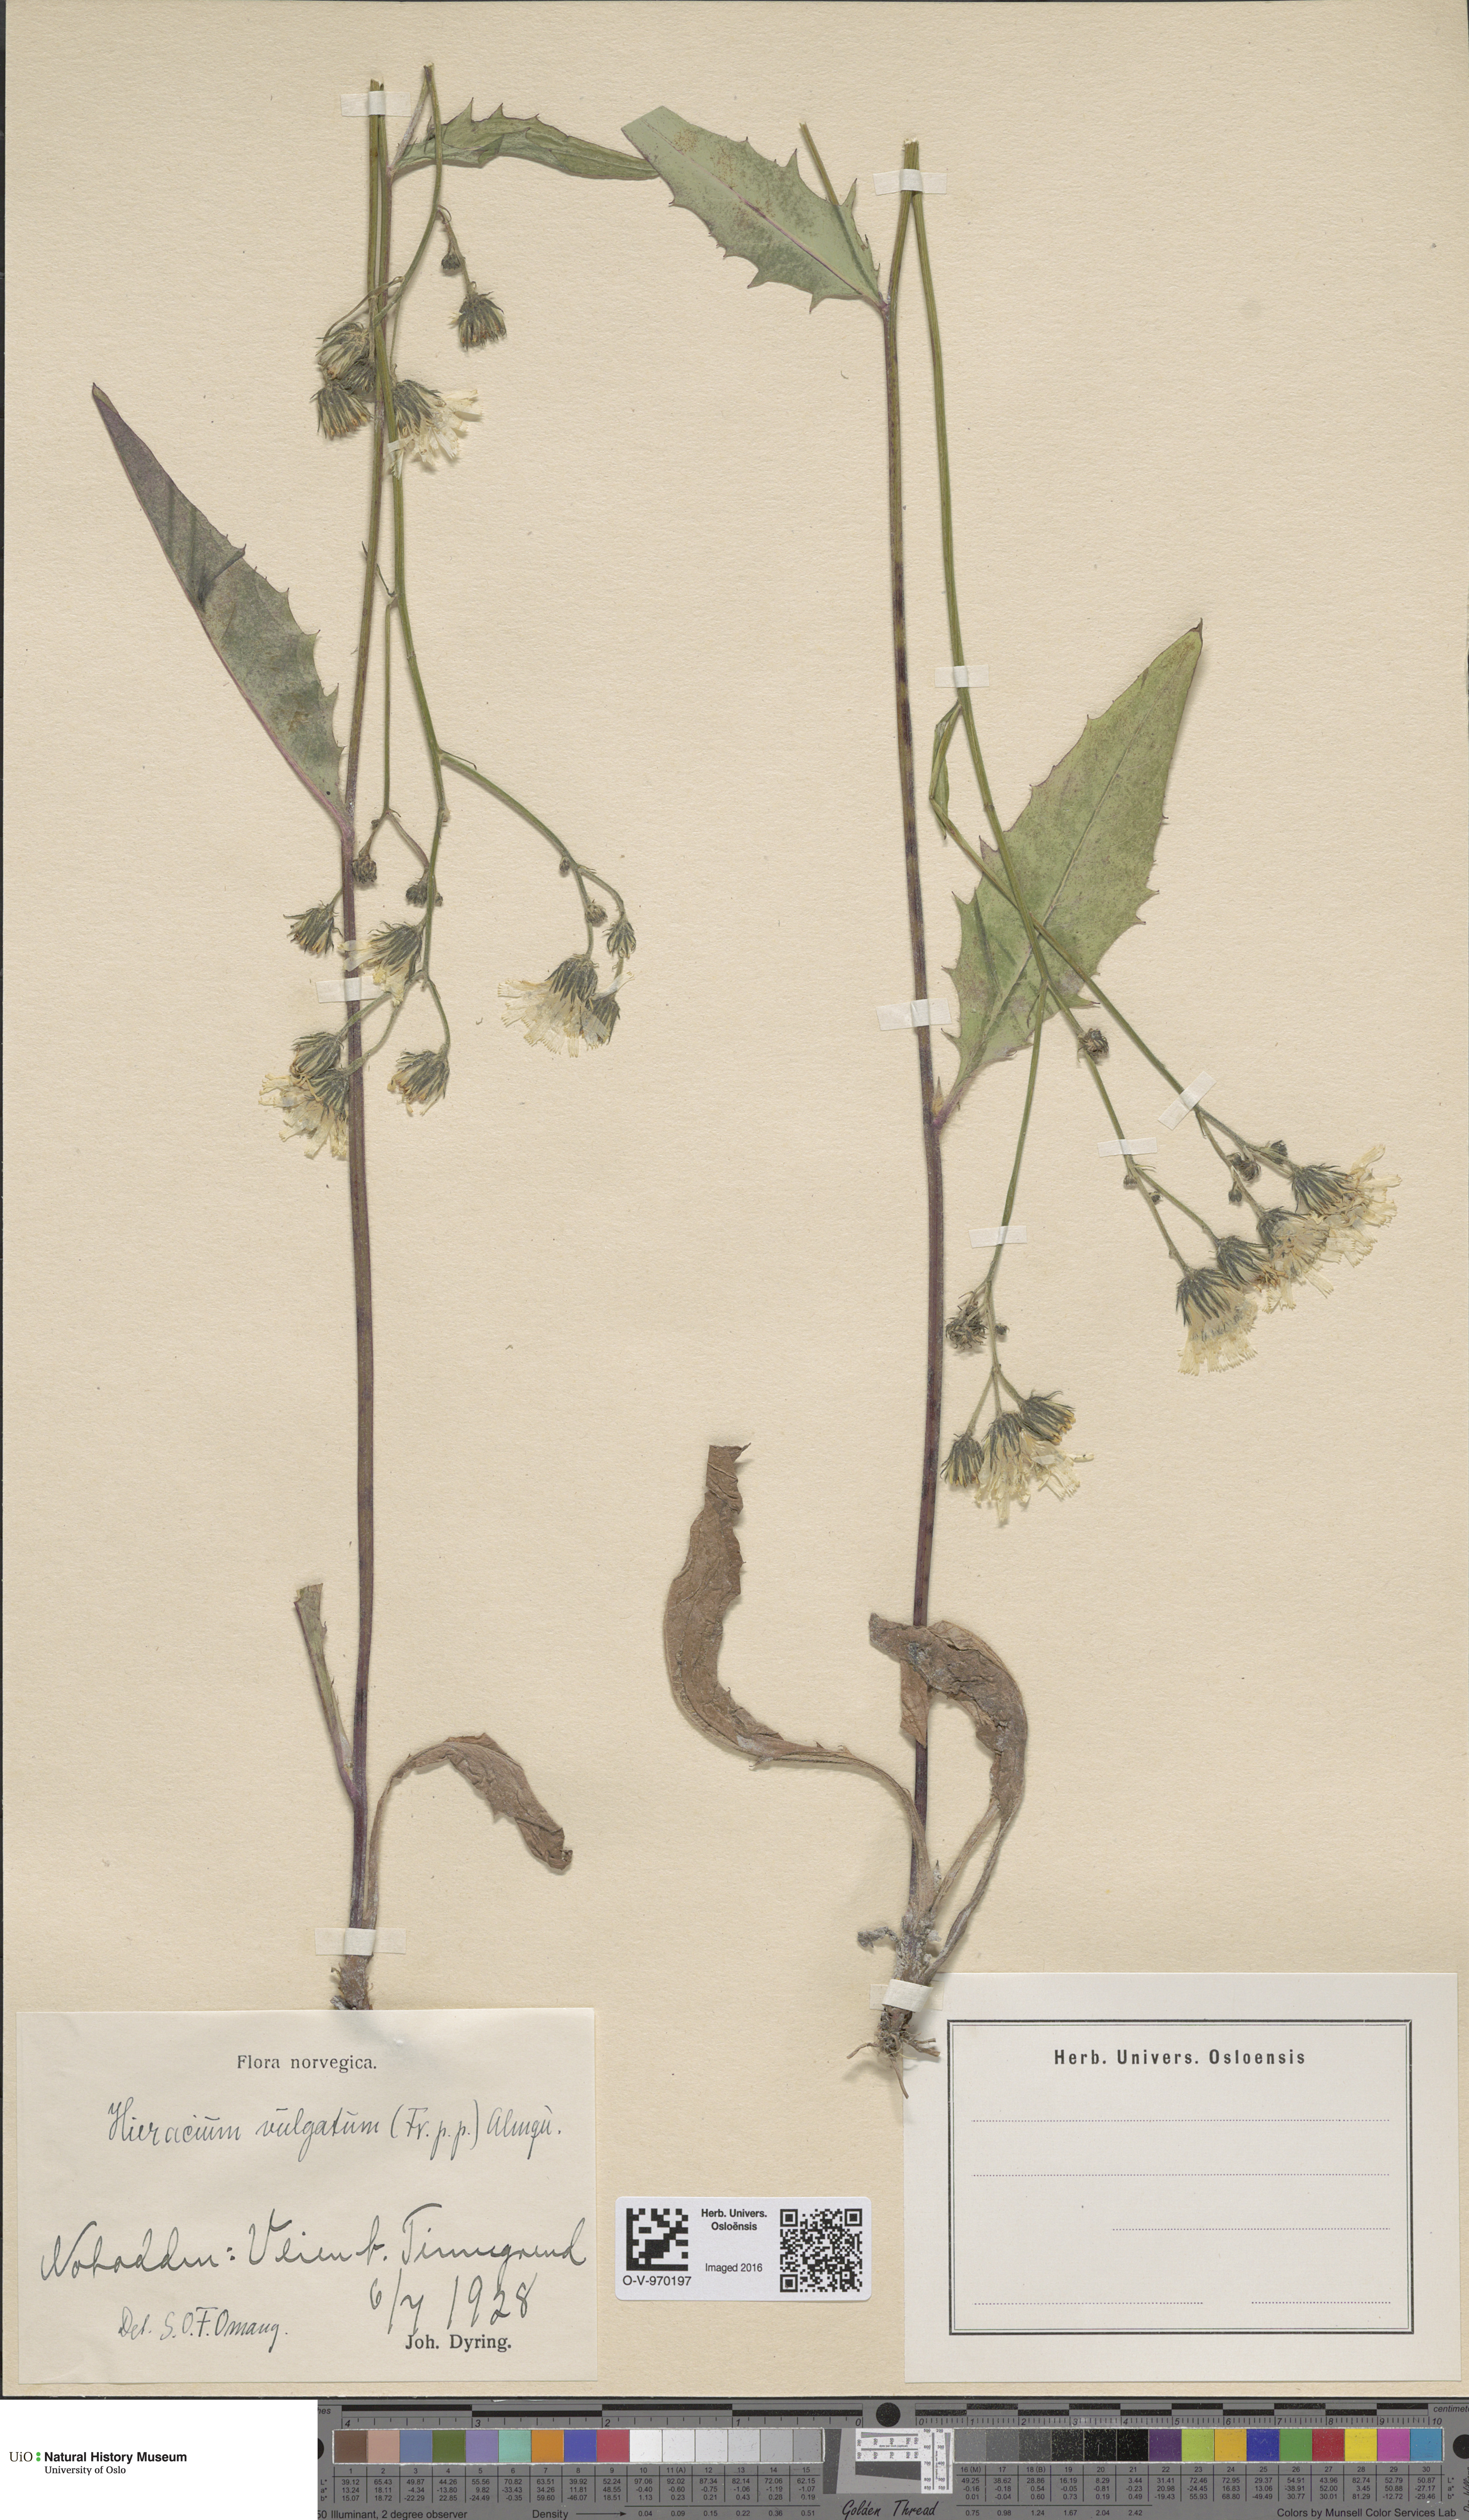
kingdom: Plantae
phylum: Tracheophyta
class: Magnoliopsida
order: Asterales
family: Asteraceae
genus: Hieracium
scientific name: Hieracium vulgatum
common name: Common hawkweed
